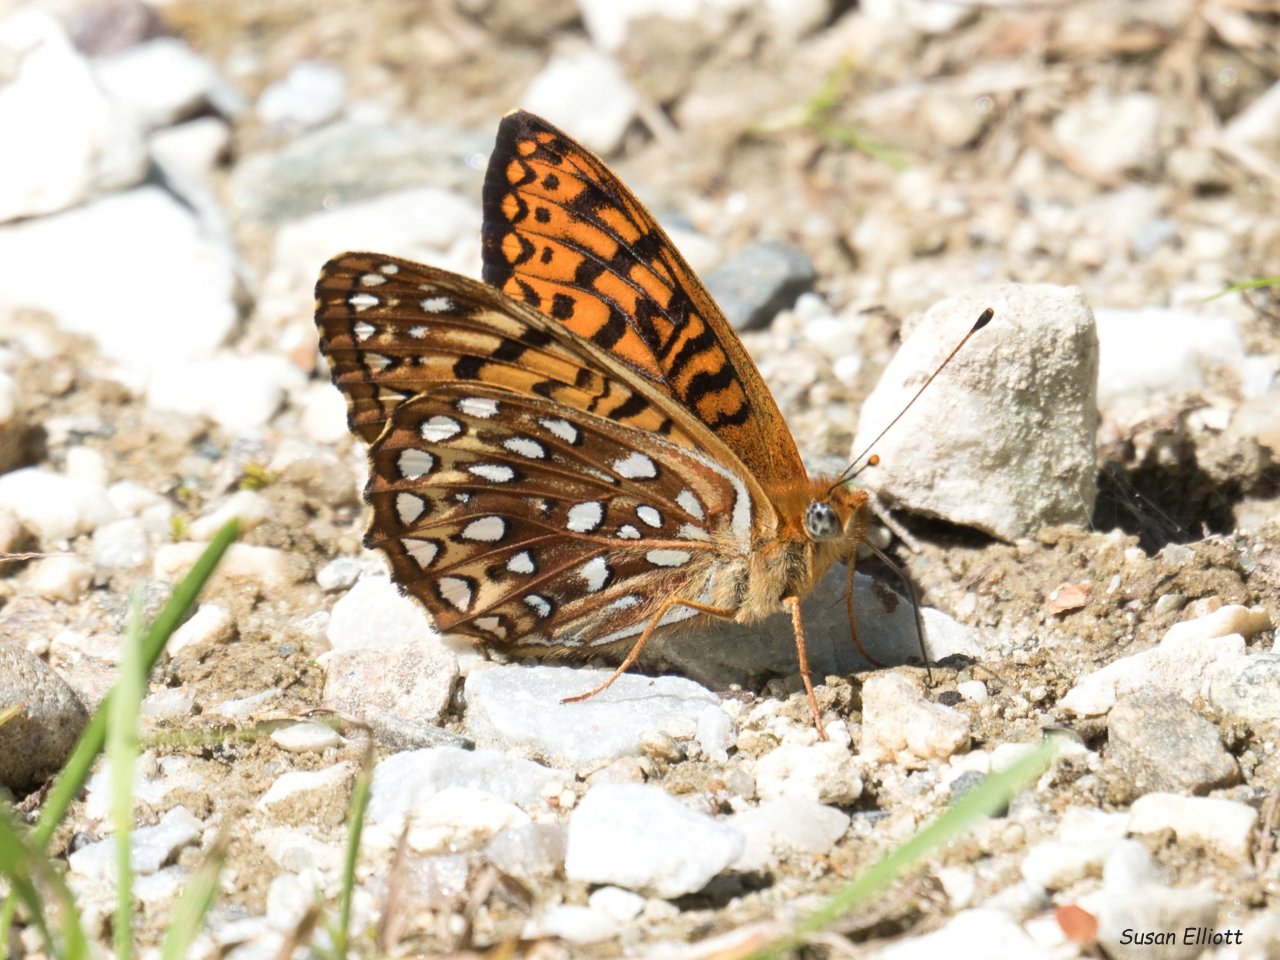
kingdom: Animalia
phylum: Arthropoda
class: Insecta
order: Lepidoptera
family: Nymphalidae
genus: Speyeria
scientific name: Speyeria atlantis
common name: Atlantis Fritillary
